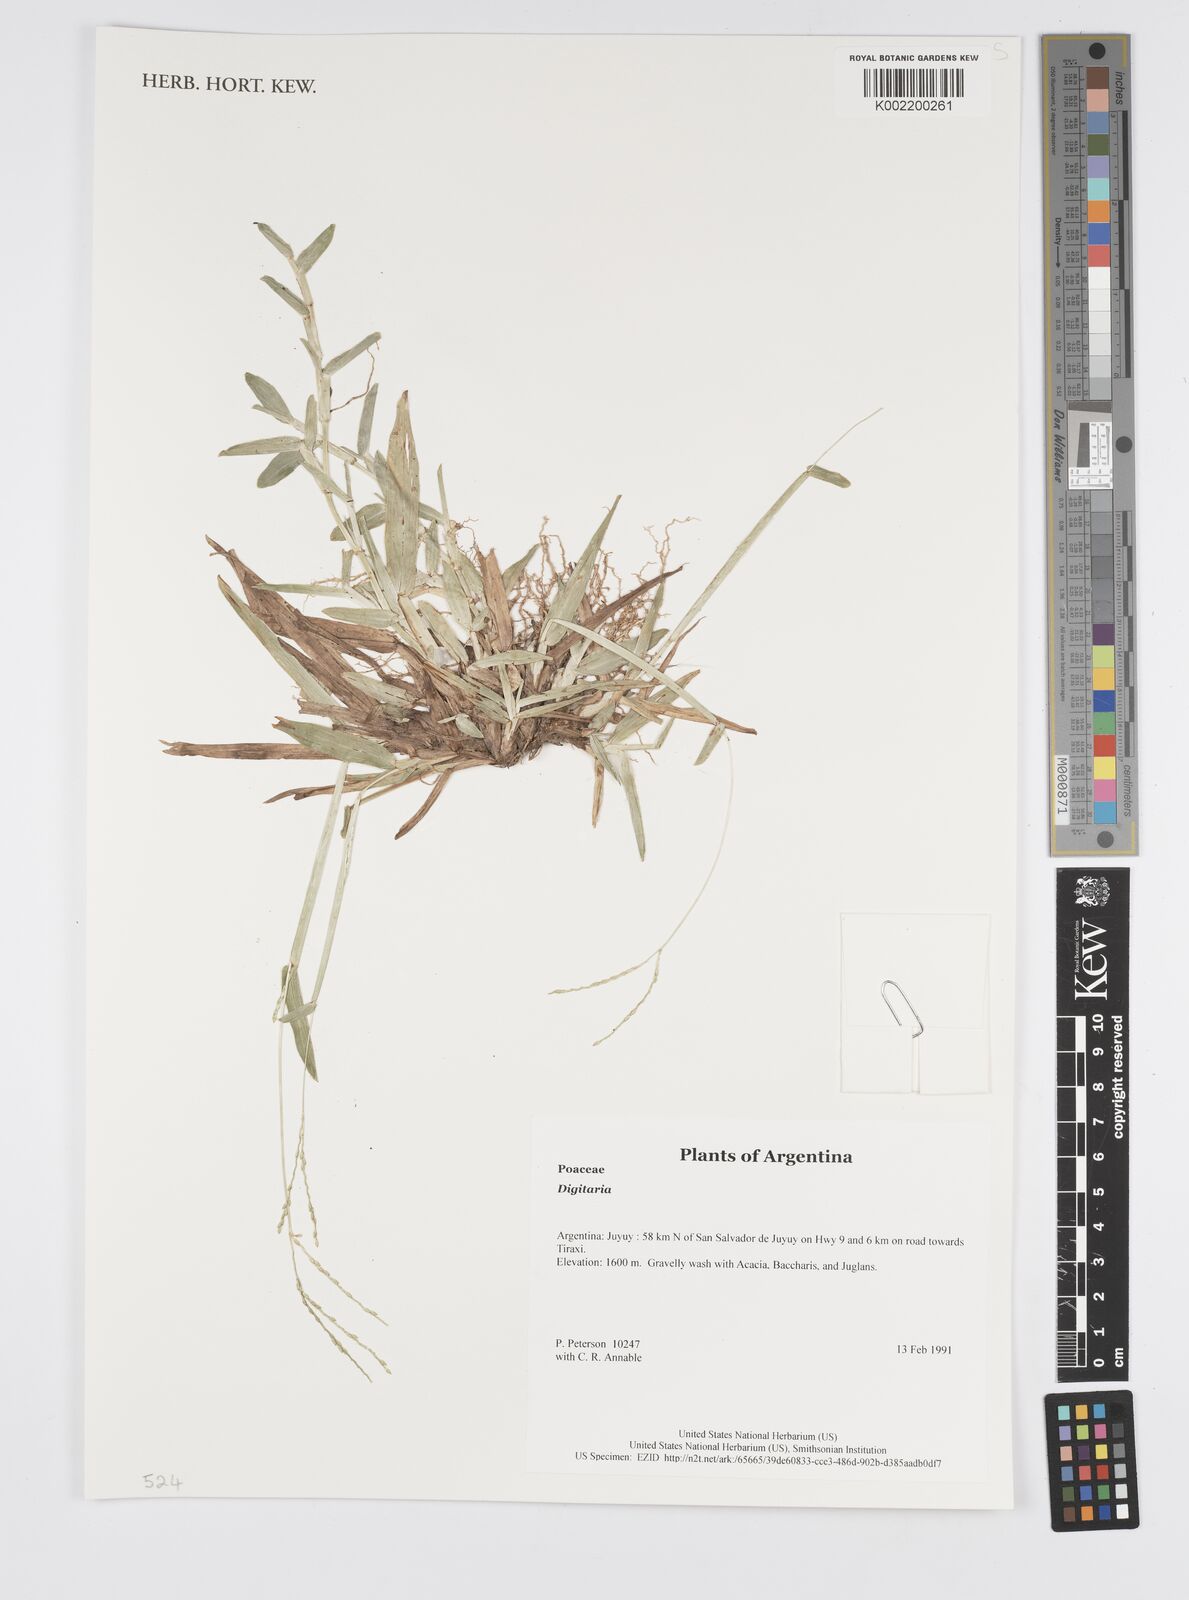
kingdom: Plantae
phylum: Tracheophyta
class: Liliopsida
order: Poales
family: Poaceae
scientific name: Poaceae
